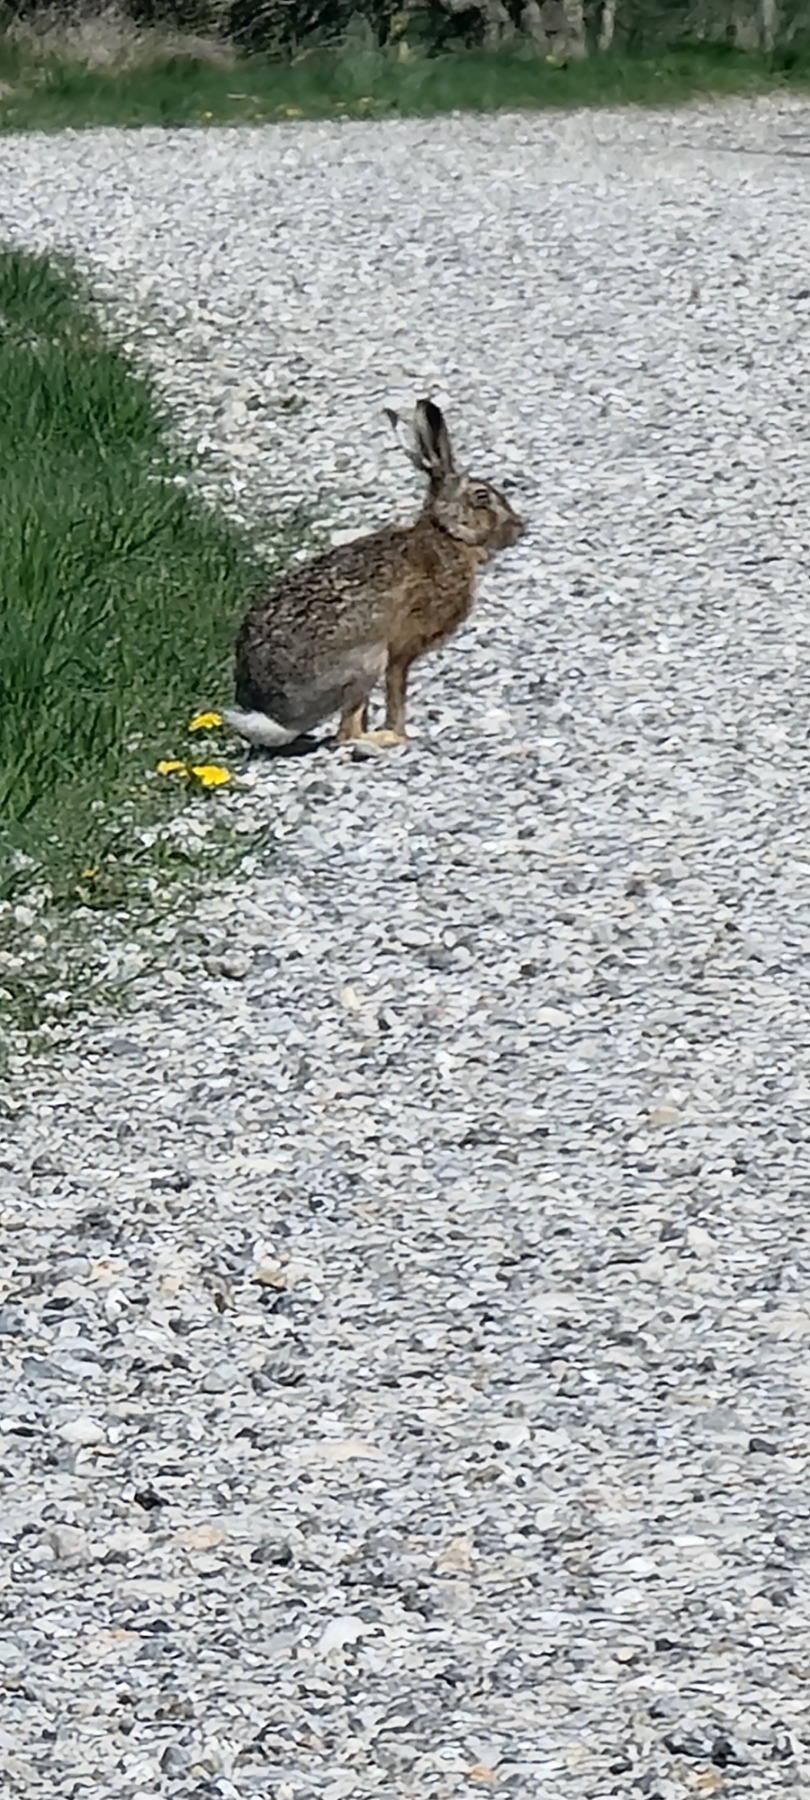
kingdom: Animalia
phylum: Chordata
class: Mammalia
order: Lagomorpha
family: Leporidae
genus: Lepus
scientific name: Lepus europaeus
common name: Hare
